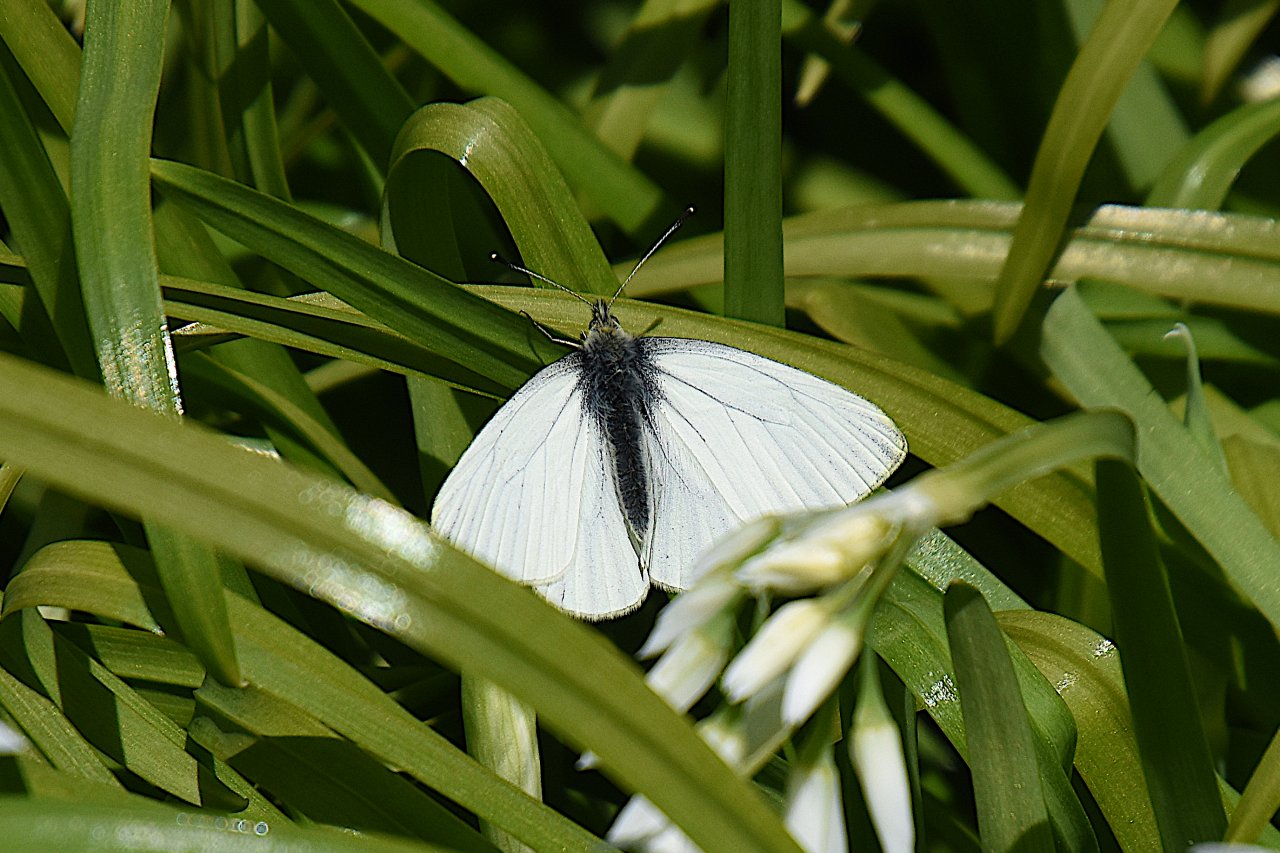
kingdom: Animalia
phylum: Arthropoda
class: Insecta
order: Lepidoptera
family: Pieridae
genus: Pieris
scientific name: Pieris marginalis
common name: Margined White
